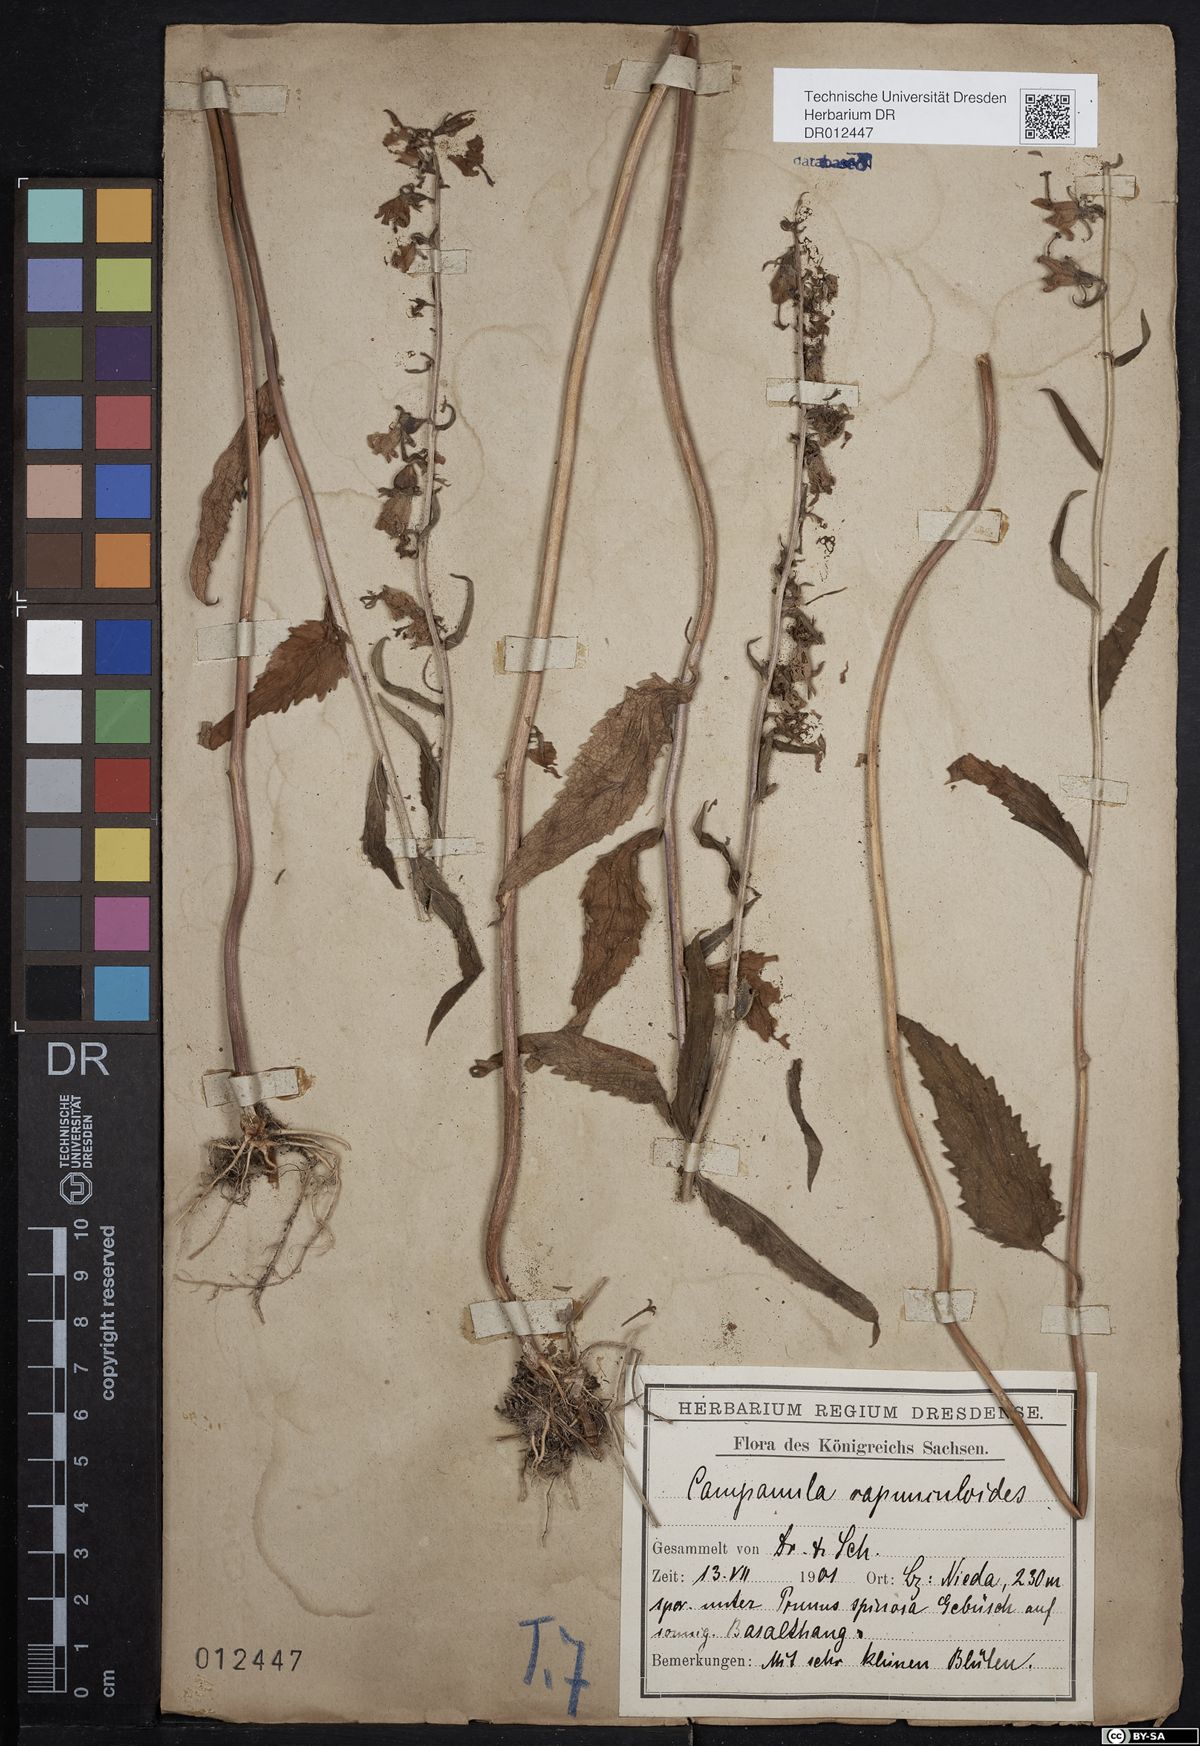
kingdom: Plantae
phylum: Tracheophyta
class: Magnoliopsida
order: Asterales
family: Campanulaceae
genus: Campanula
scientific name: Campanula rapunculoides
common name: Creeping bellflower
